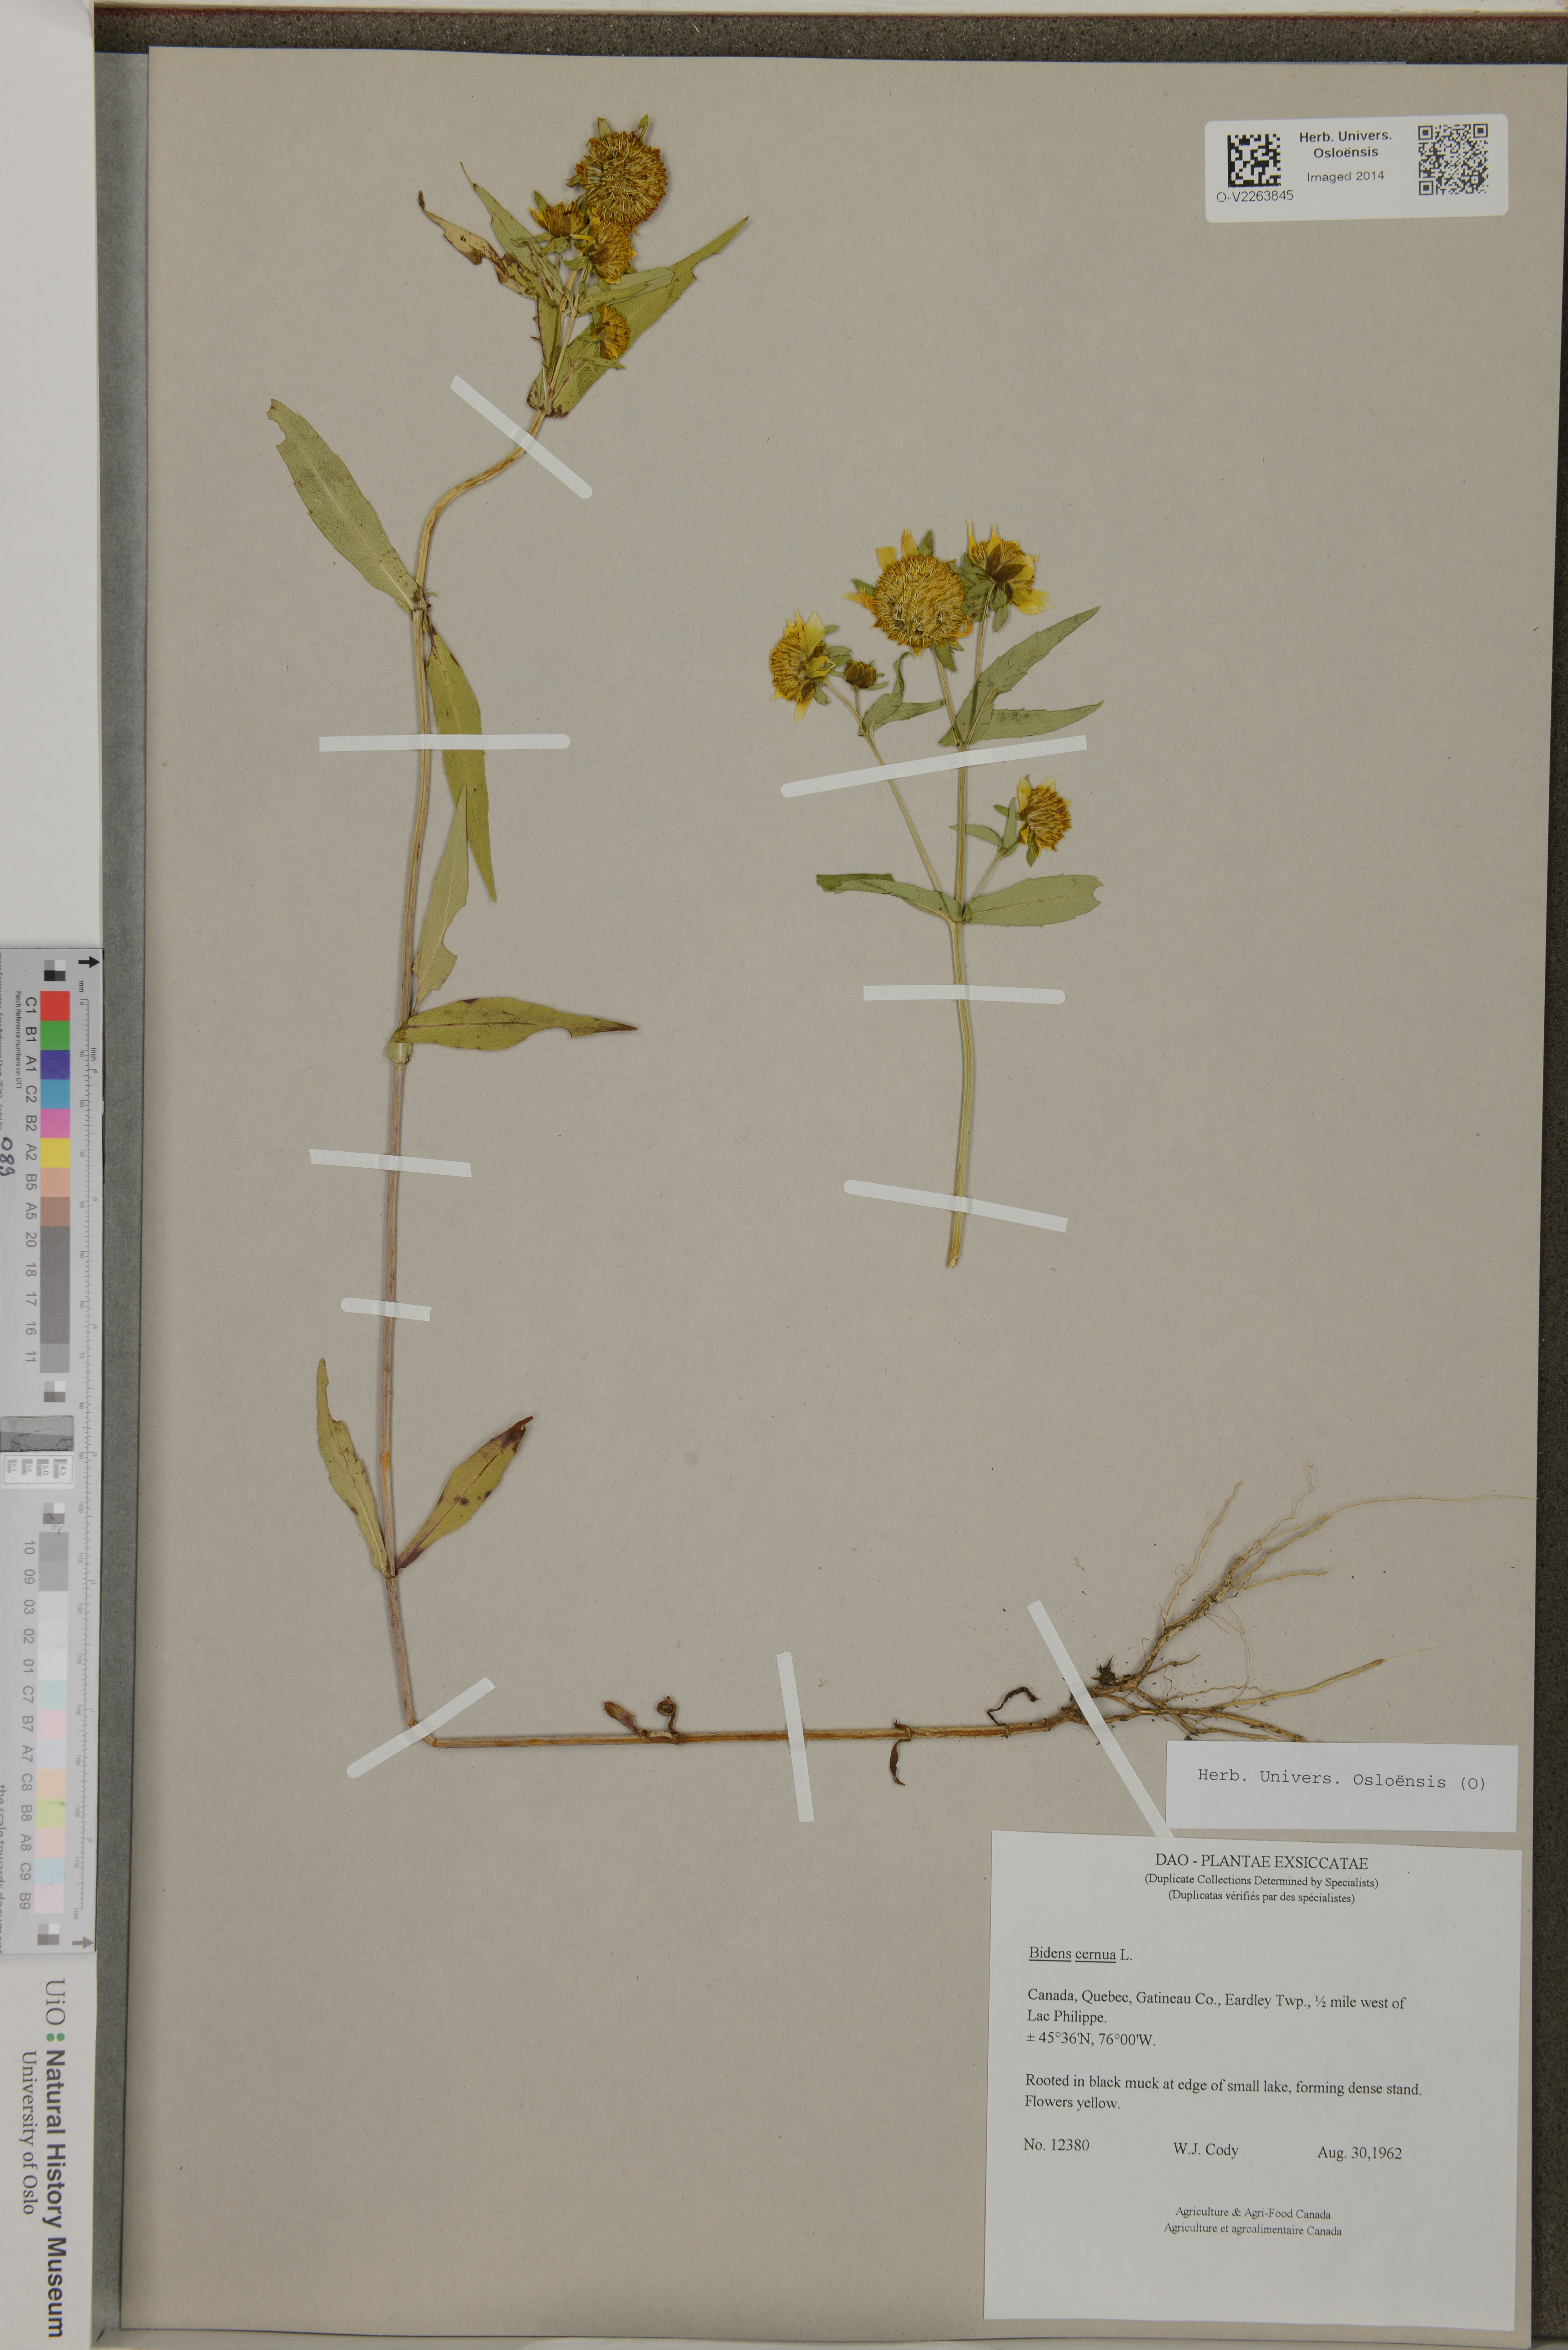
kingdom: Plantae
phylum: Tracheophyta
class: Magnoliopsida
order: Asterales
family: Asteraceae
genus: Bidens
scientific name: Bidens cernua
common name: Nodding bur-marigold
